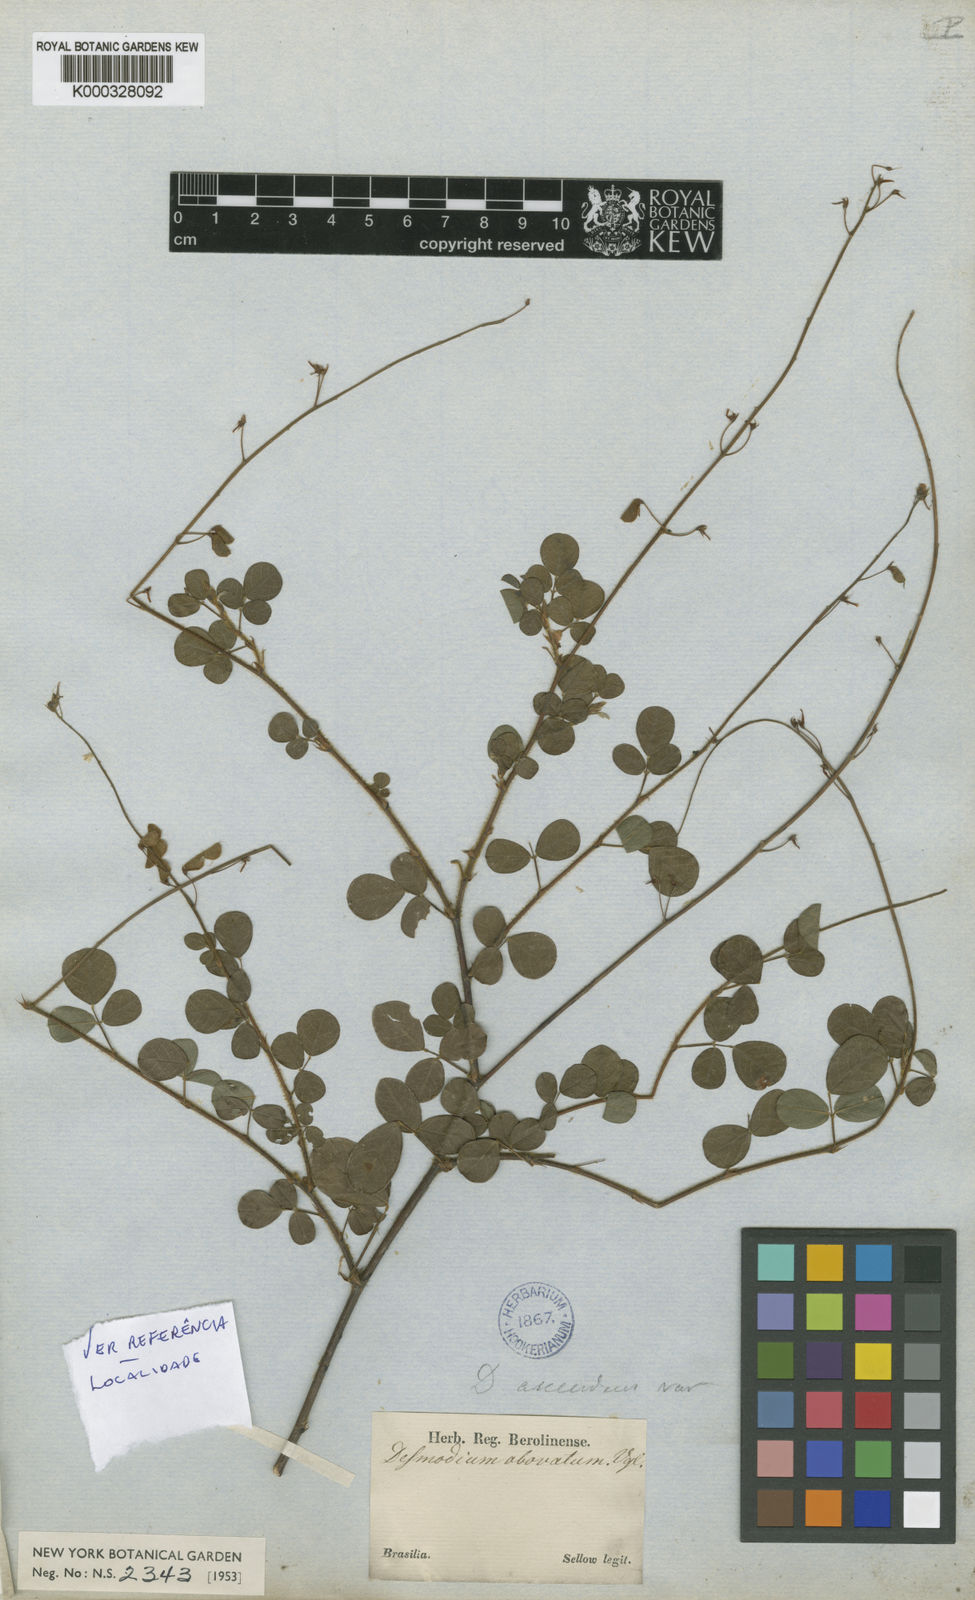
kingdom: Plantae
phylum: Tracheophyta
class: Magnoliopsida
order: Fabales
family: Fabaceae
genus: Grona
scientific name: Grona adscendens
